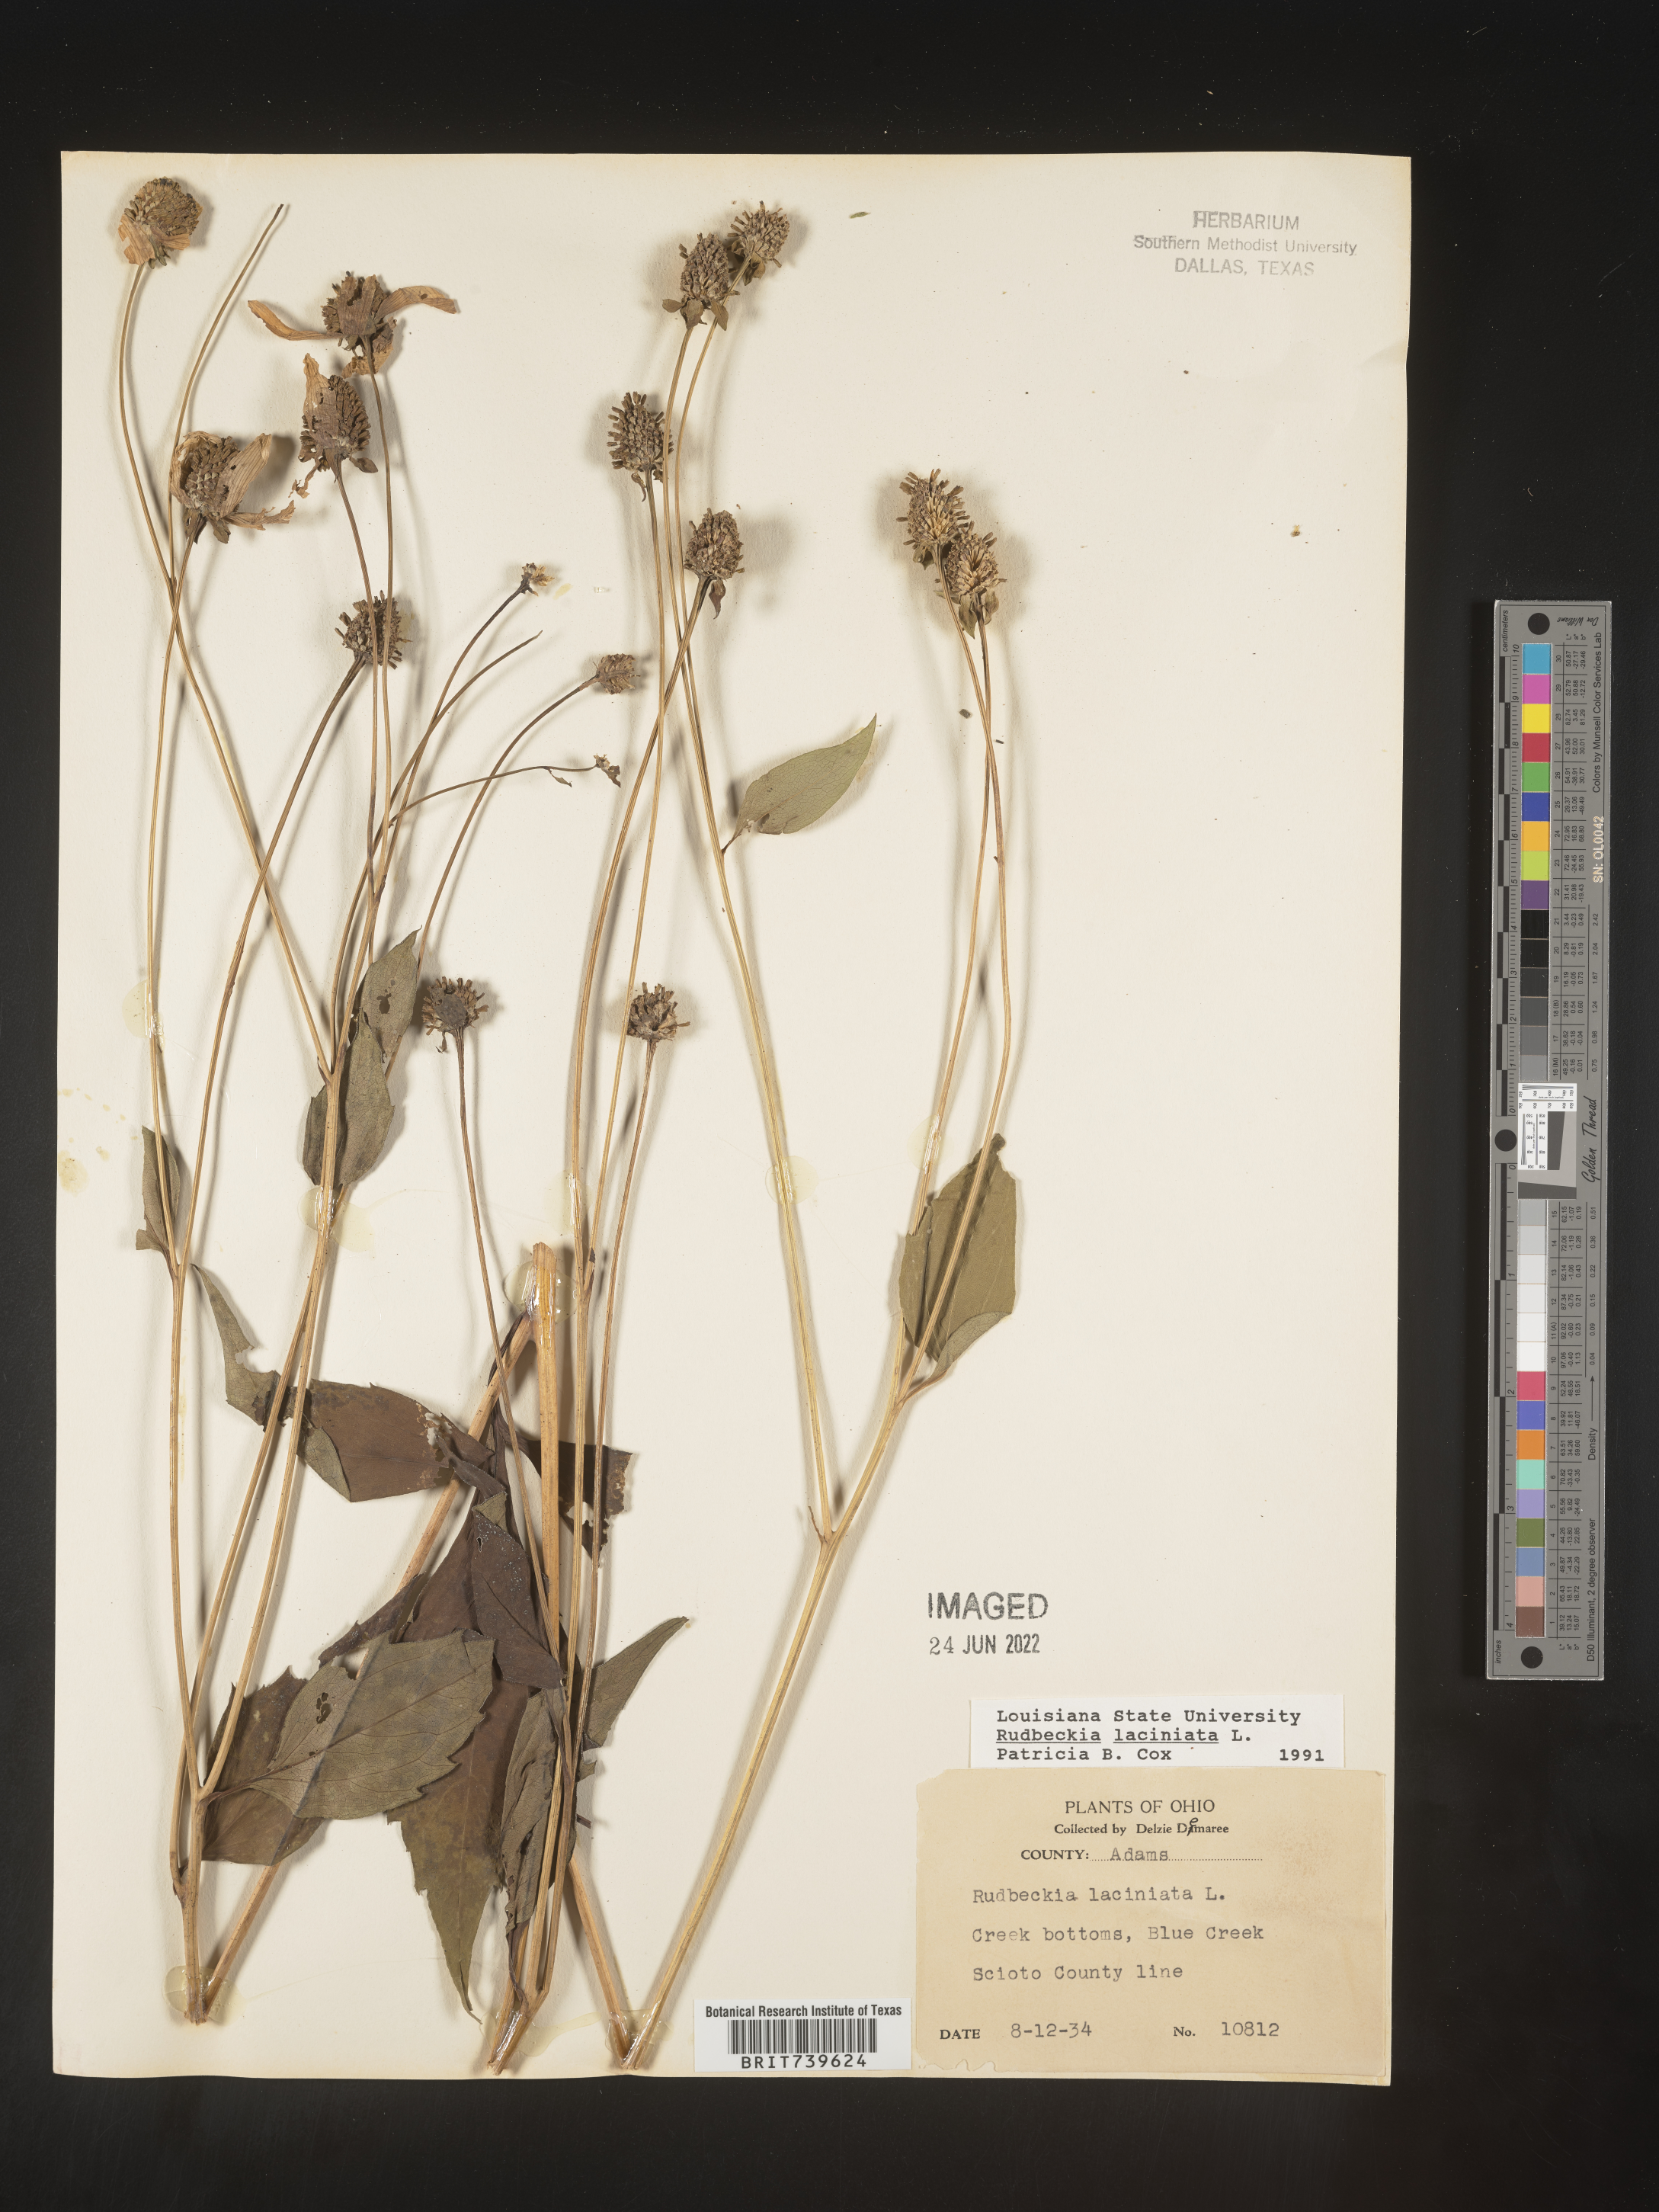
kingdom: Plantae
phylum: Tracheophyta
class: Magnoliopsida
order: Asterales
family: Asteraceae
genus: Rudbeckia
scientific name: Rudbeckia laciniata
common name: Coneflower
